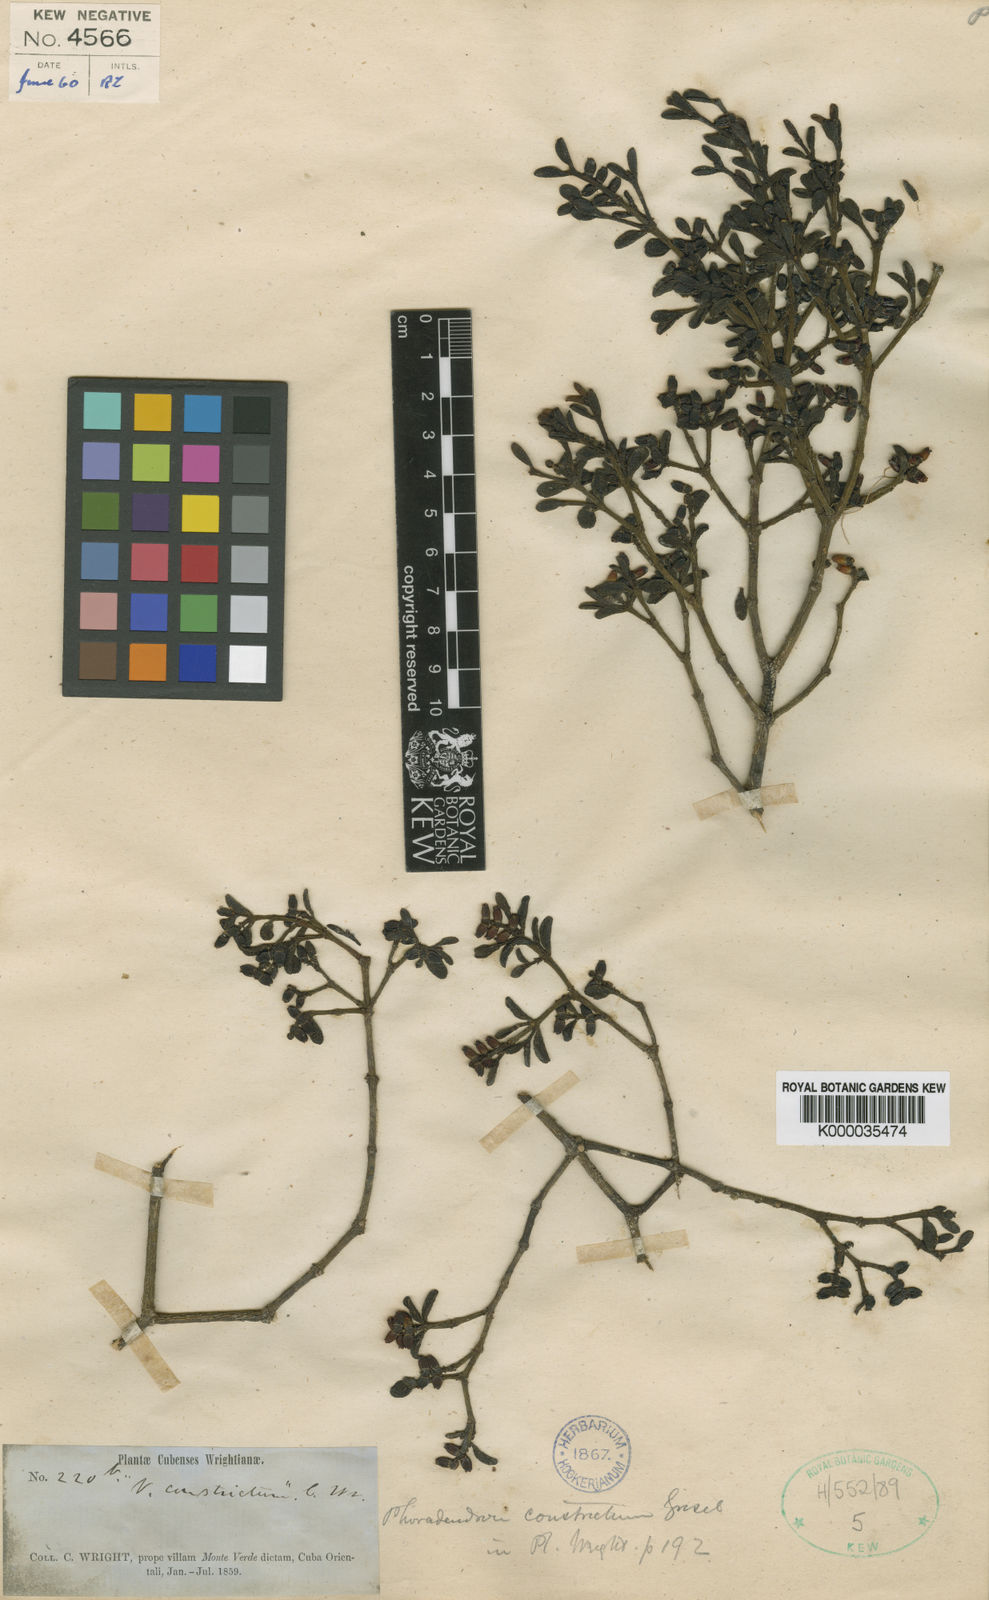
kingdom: Plantae
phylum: Tracheophyta
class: Magnoliopsida
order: Santalales
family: Viscaceae
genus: Dendrophthora
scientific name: Dendrophthora constricta
